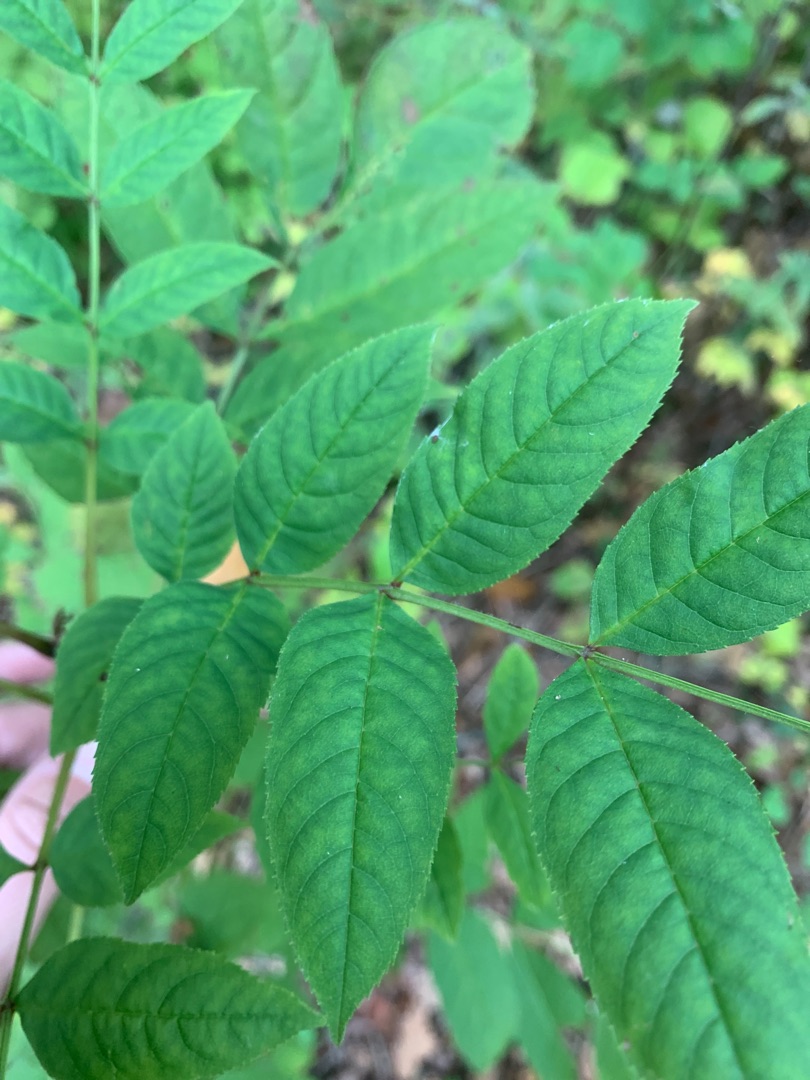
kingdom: Plantae
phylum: Tracheophyta
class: Magnoliopsida
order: Lamiales
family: Oleaceae
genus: Fraxinus
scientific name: Fraxinus excelsior
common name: Ask
